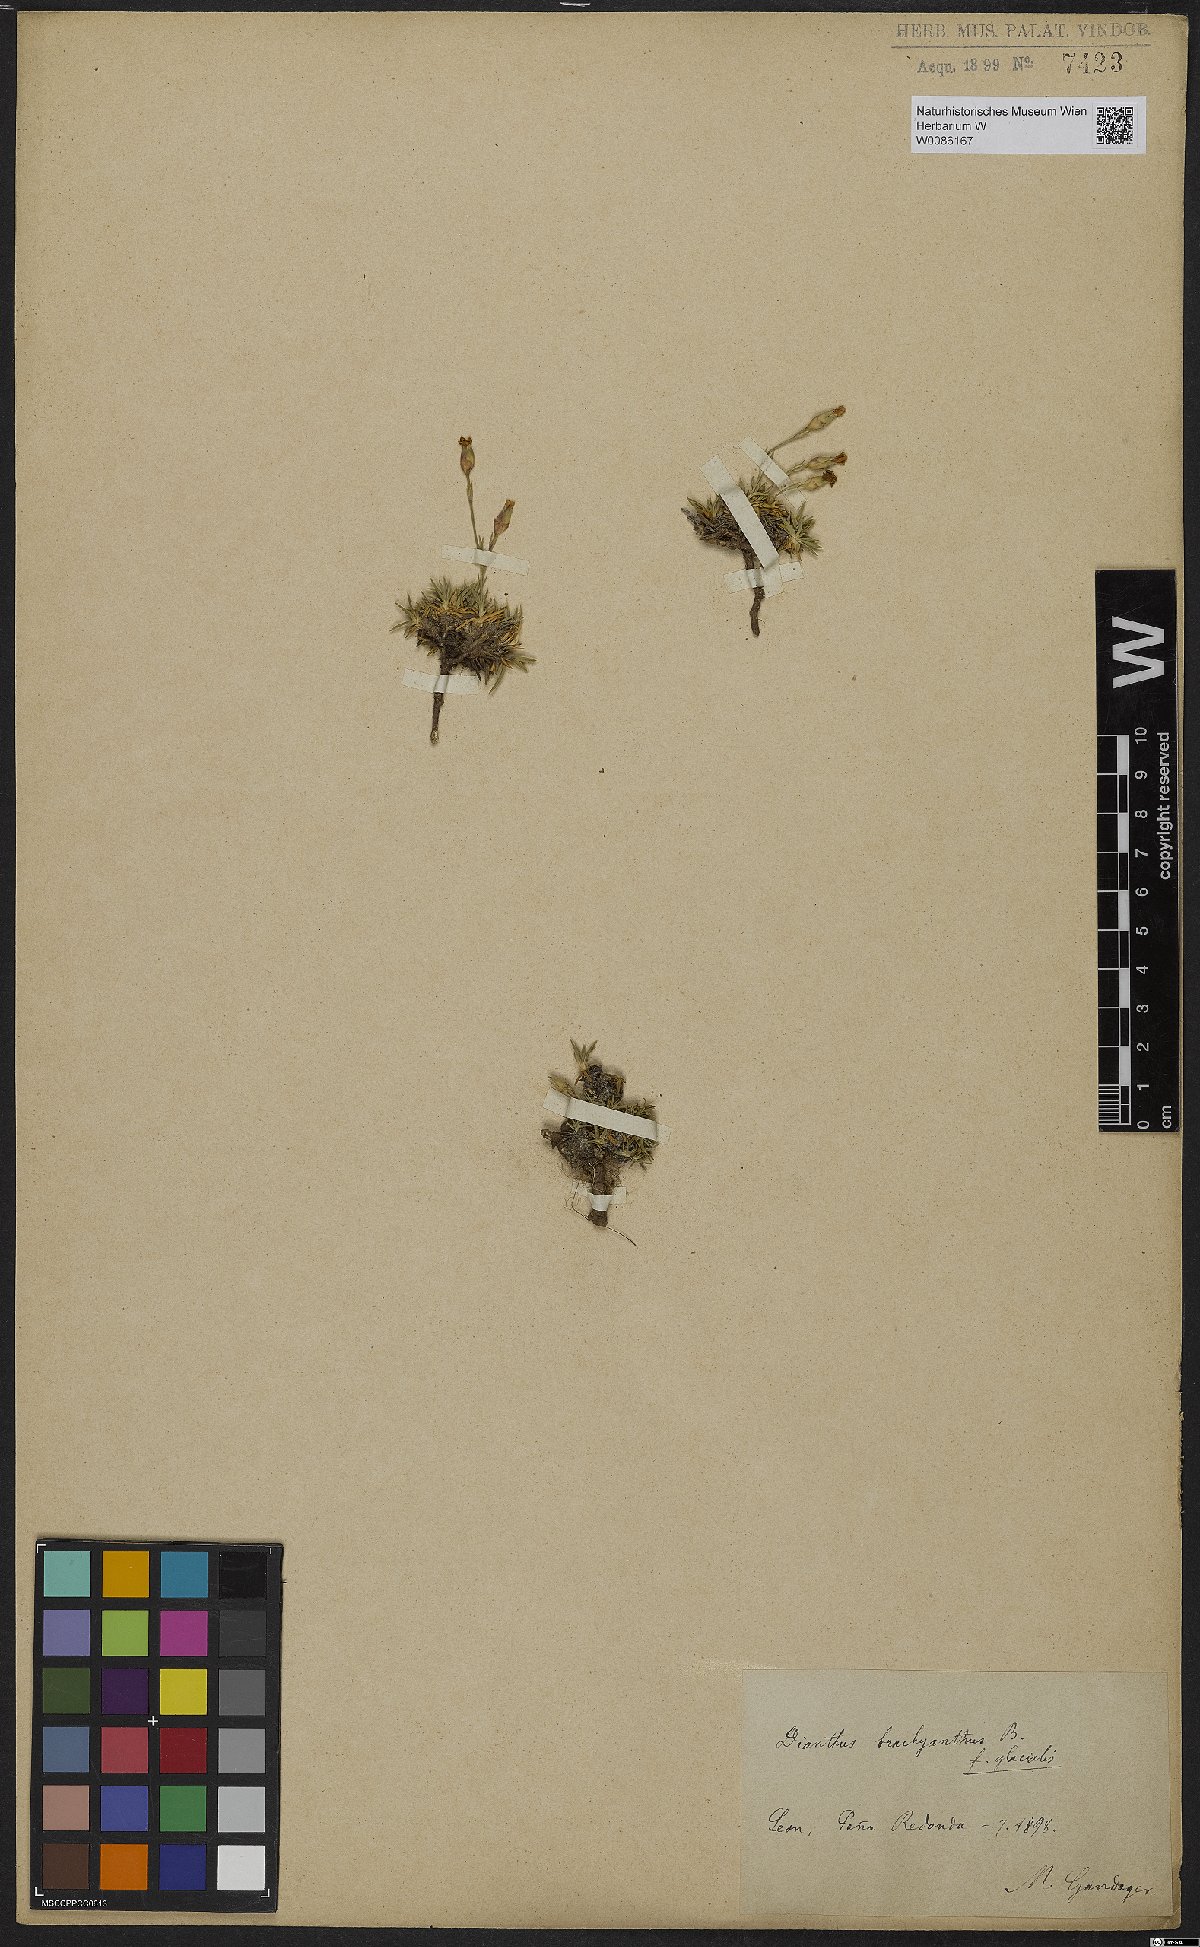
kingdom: Plantae
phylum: Tracheophyta
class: Magnoliopsida
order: Caryophyllales
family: Caryophyllaceae
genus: Dianthus
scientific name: Dianthus subacaulis
